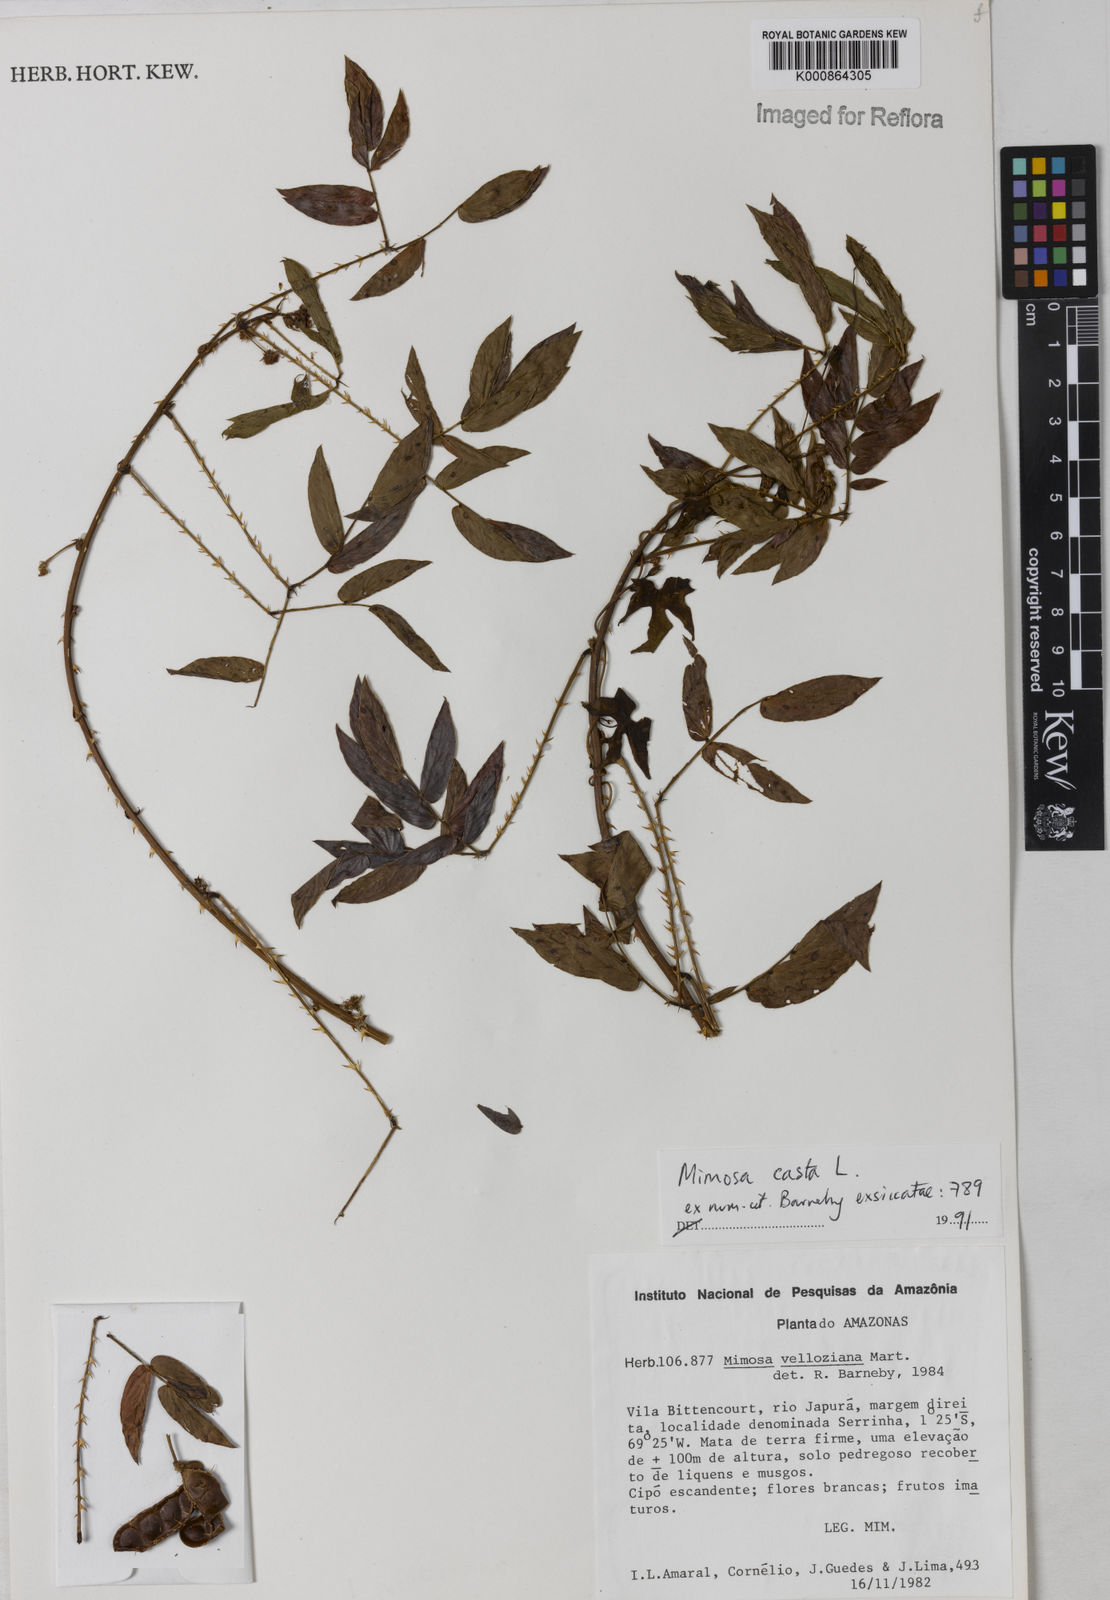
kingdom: Plantae
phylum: Tracheophyta
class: Magnoliopsida
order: Fabales
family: Fabaceae
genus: Mimosa
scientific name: Mimosa casta
